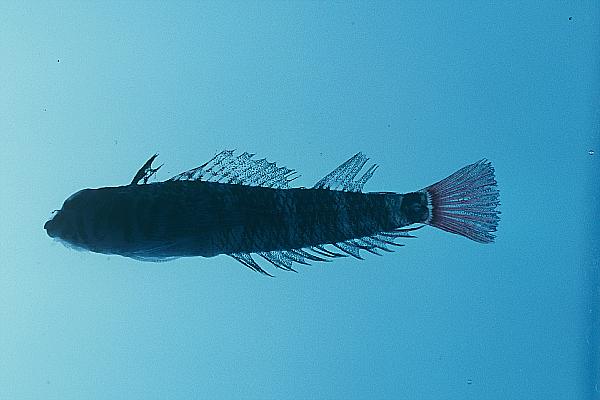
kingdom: Animalia
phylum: Chordata
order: Perciformes
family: Tripterygiidae
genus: Enneapterygius
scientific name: Enneapterygius gruschkai
